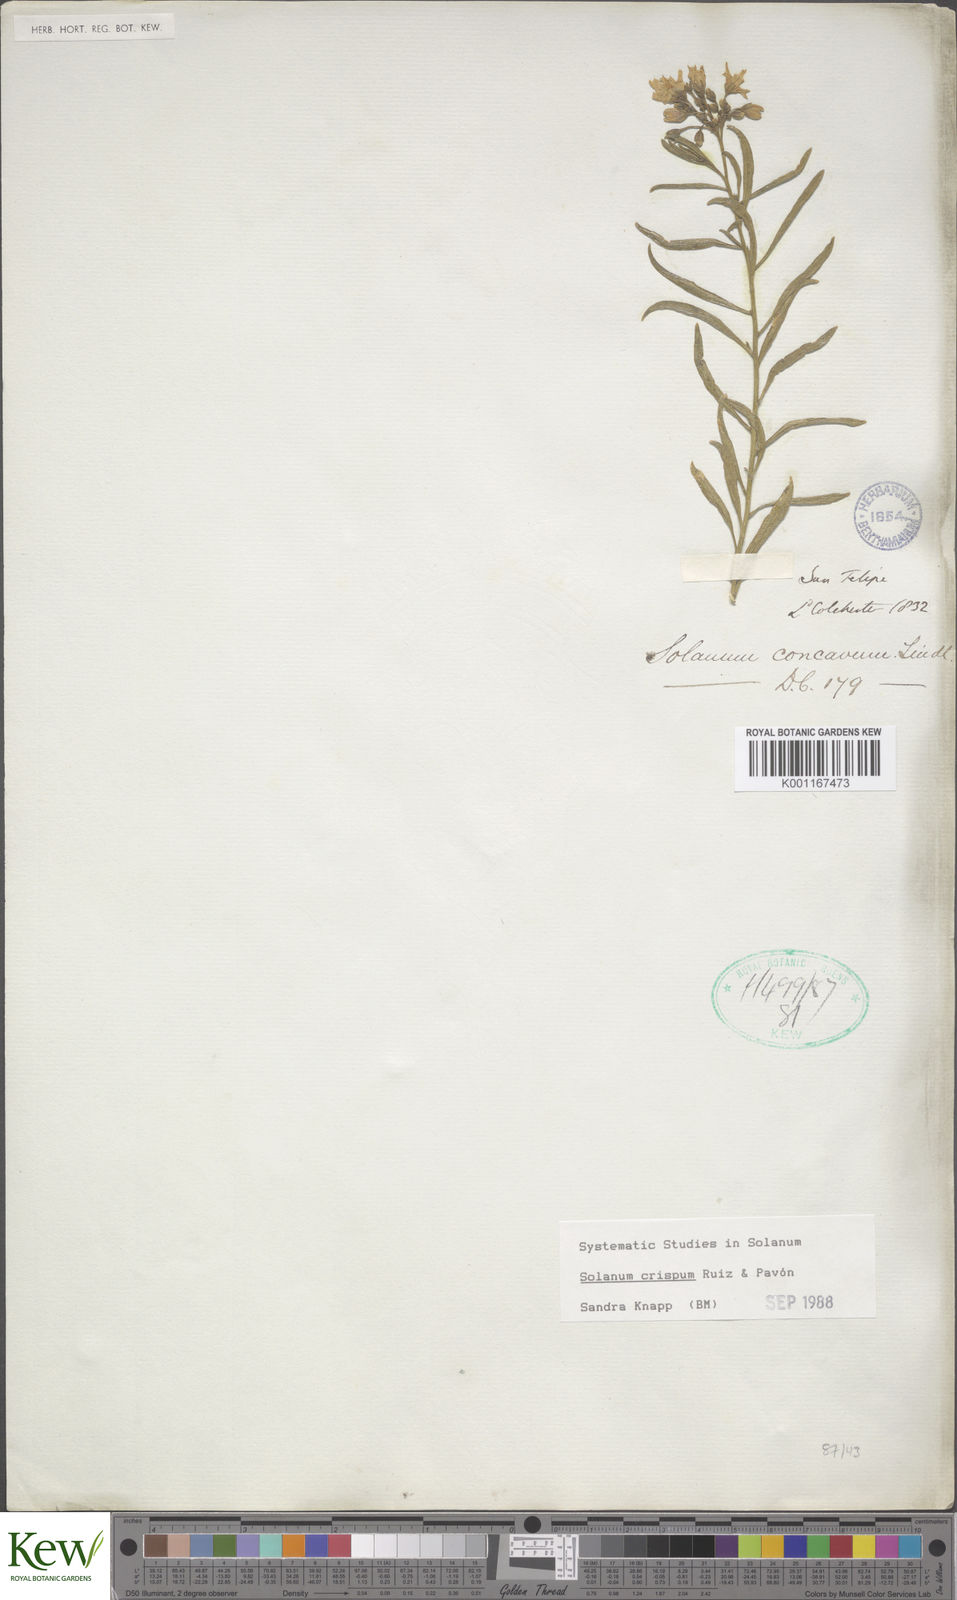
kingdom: Plantae
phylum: Tracheophyta
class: Magnoliopsida
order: Solanales
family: Solanaceae
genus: Solanum
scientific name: Solanum crispum
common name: Chilean nightshade
